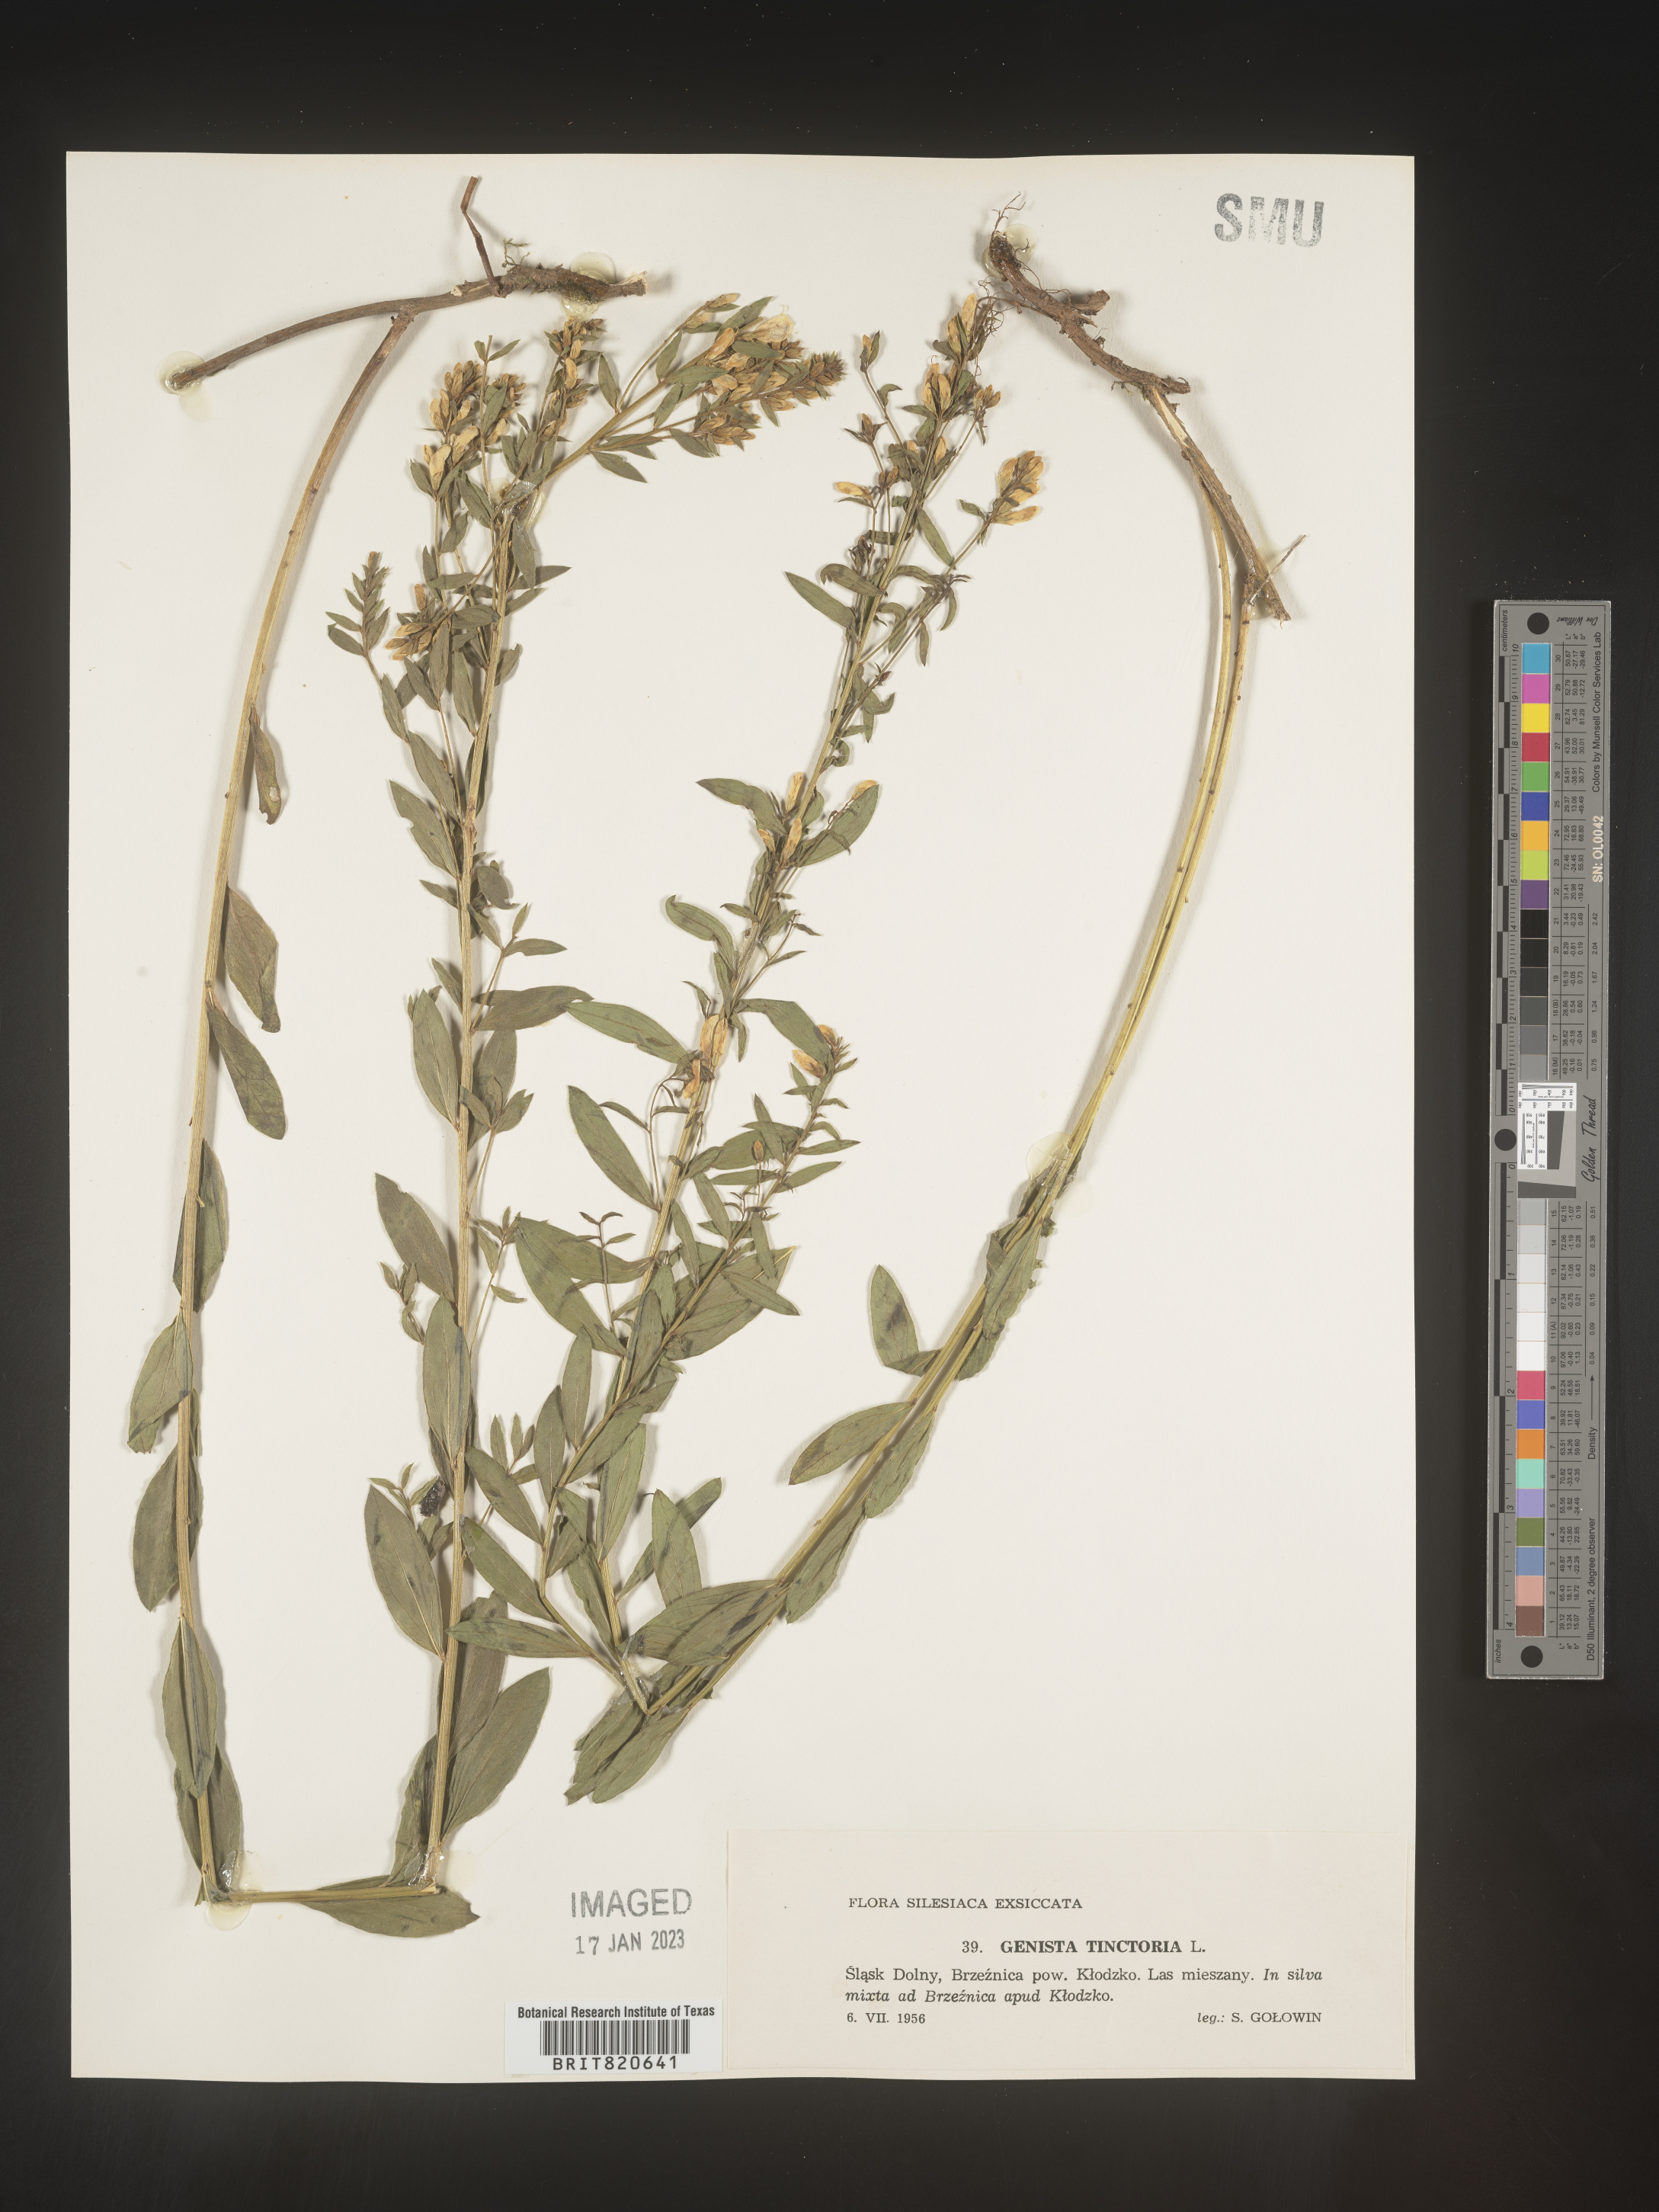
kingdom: Plantae
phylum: Tracheophyta
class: Magnoliopsida
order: Fabales
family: Fabaceae
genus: Genista
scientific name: Genista tinctoria
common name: Dyer's greenweed
